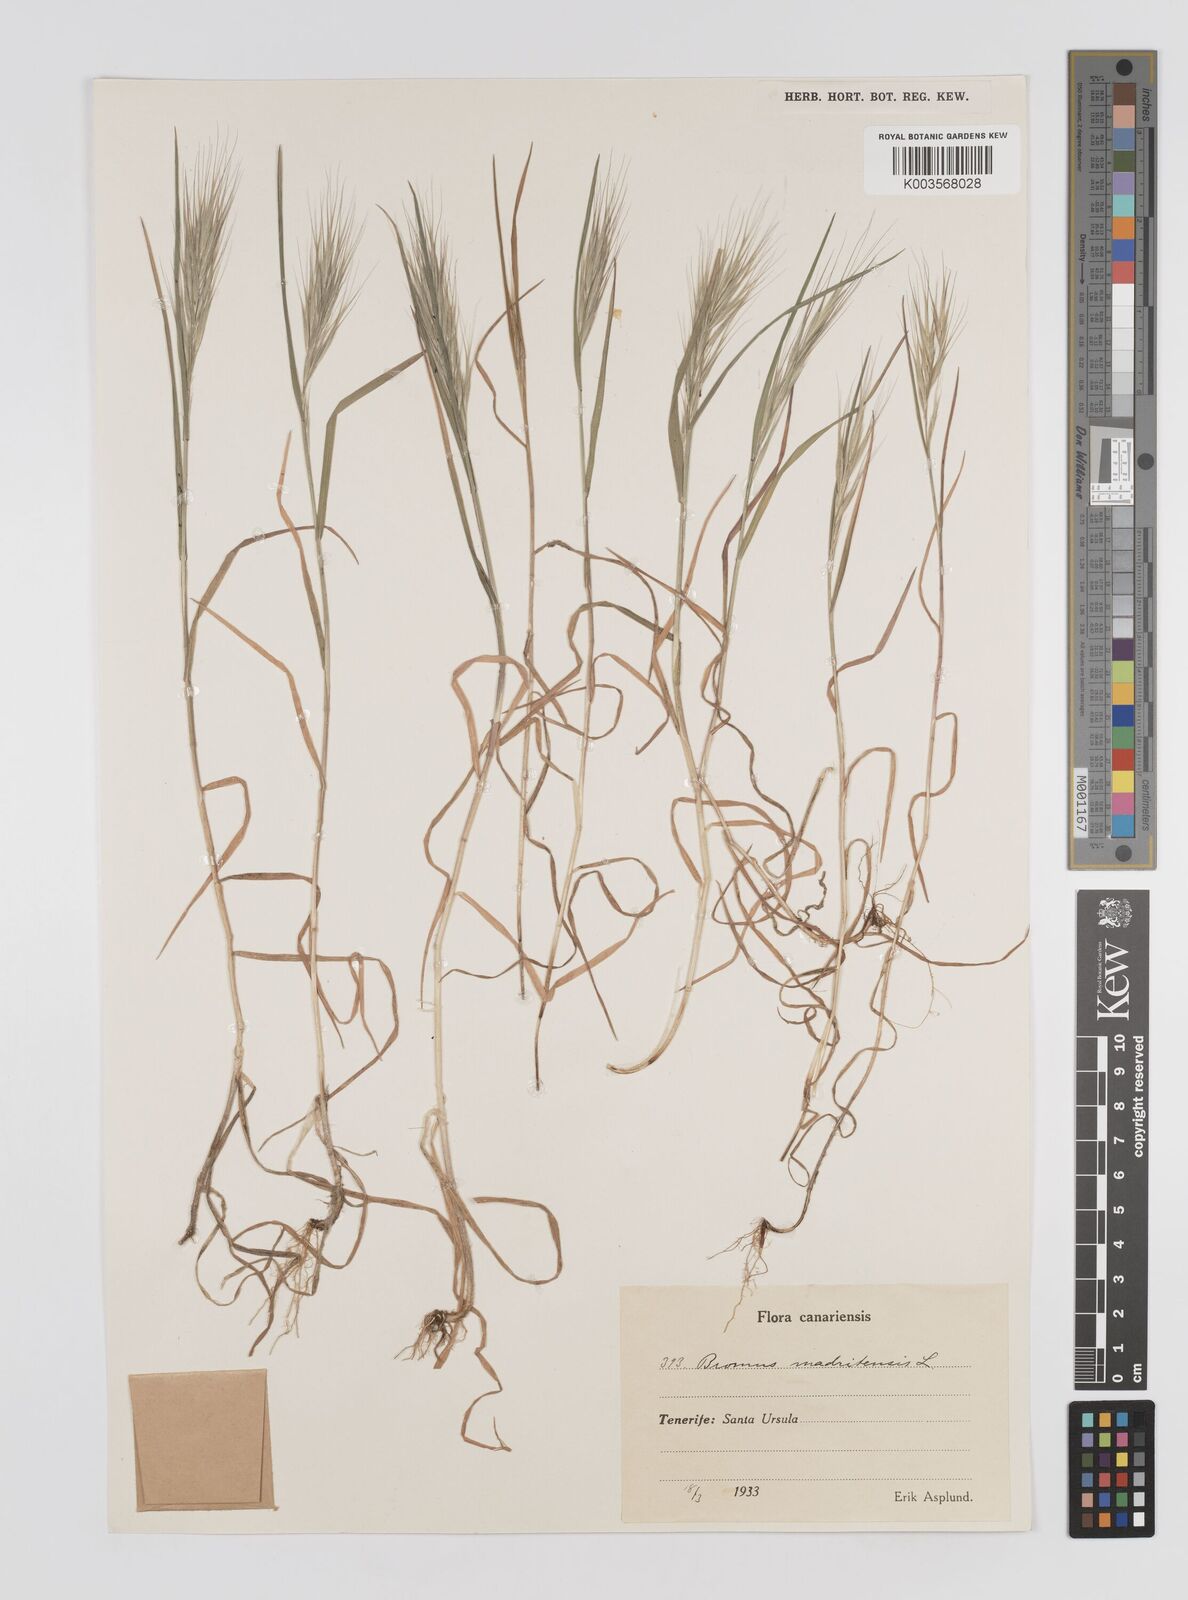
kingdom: Plantae
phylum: Tracheophyta
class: Liliopsida
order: Poales
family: Poaceae
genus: Bromus
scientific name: Bromus
